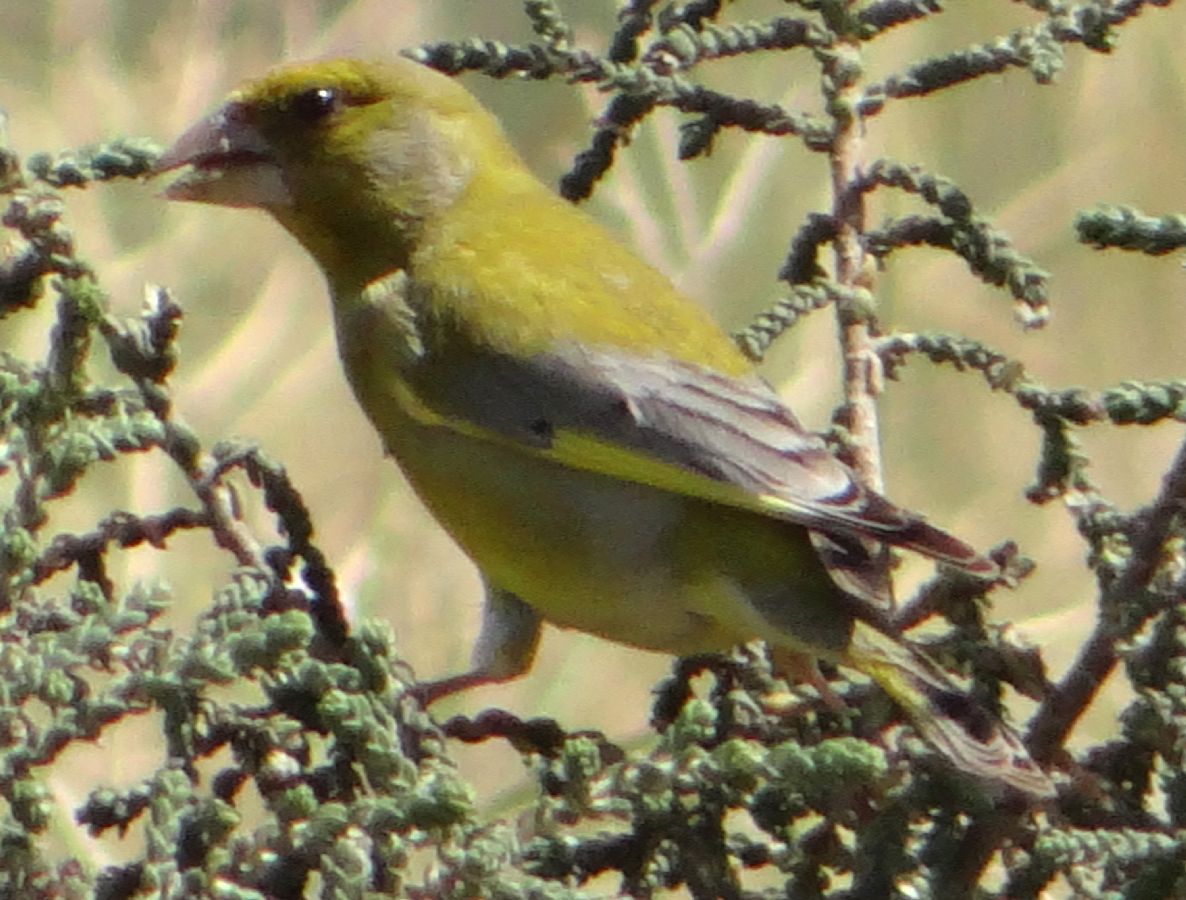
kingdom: Plantae
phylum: Tracheophyta
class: Liliopsida
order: Poales
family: Poaceae
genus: Chloris
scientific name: Chloris chloris
